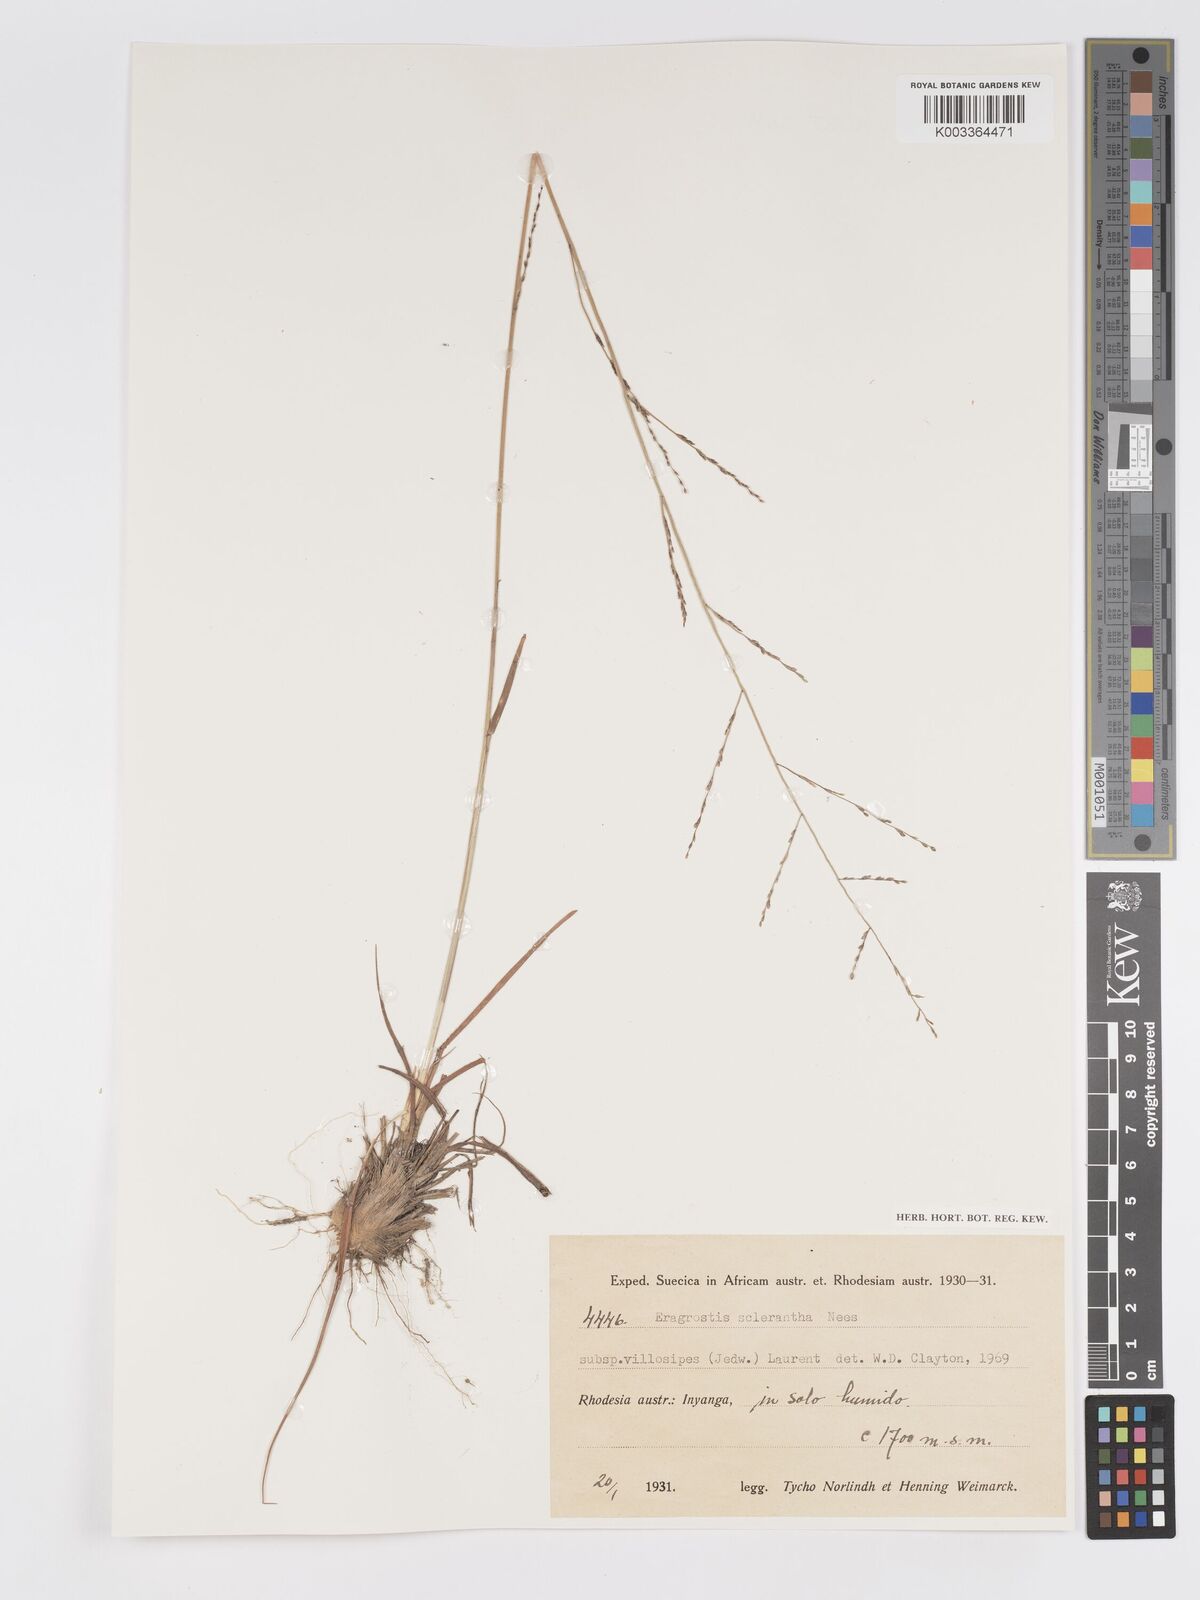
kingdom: Plantae
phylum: Tracheophyta
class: Liliopsida
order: Poales
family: Poaceae
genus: Eragrostis
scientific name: Eragrostis sclerantha
